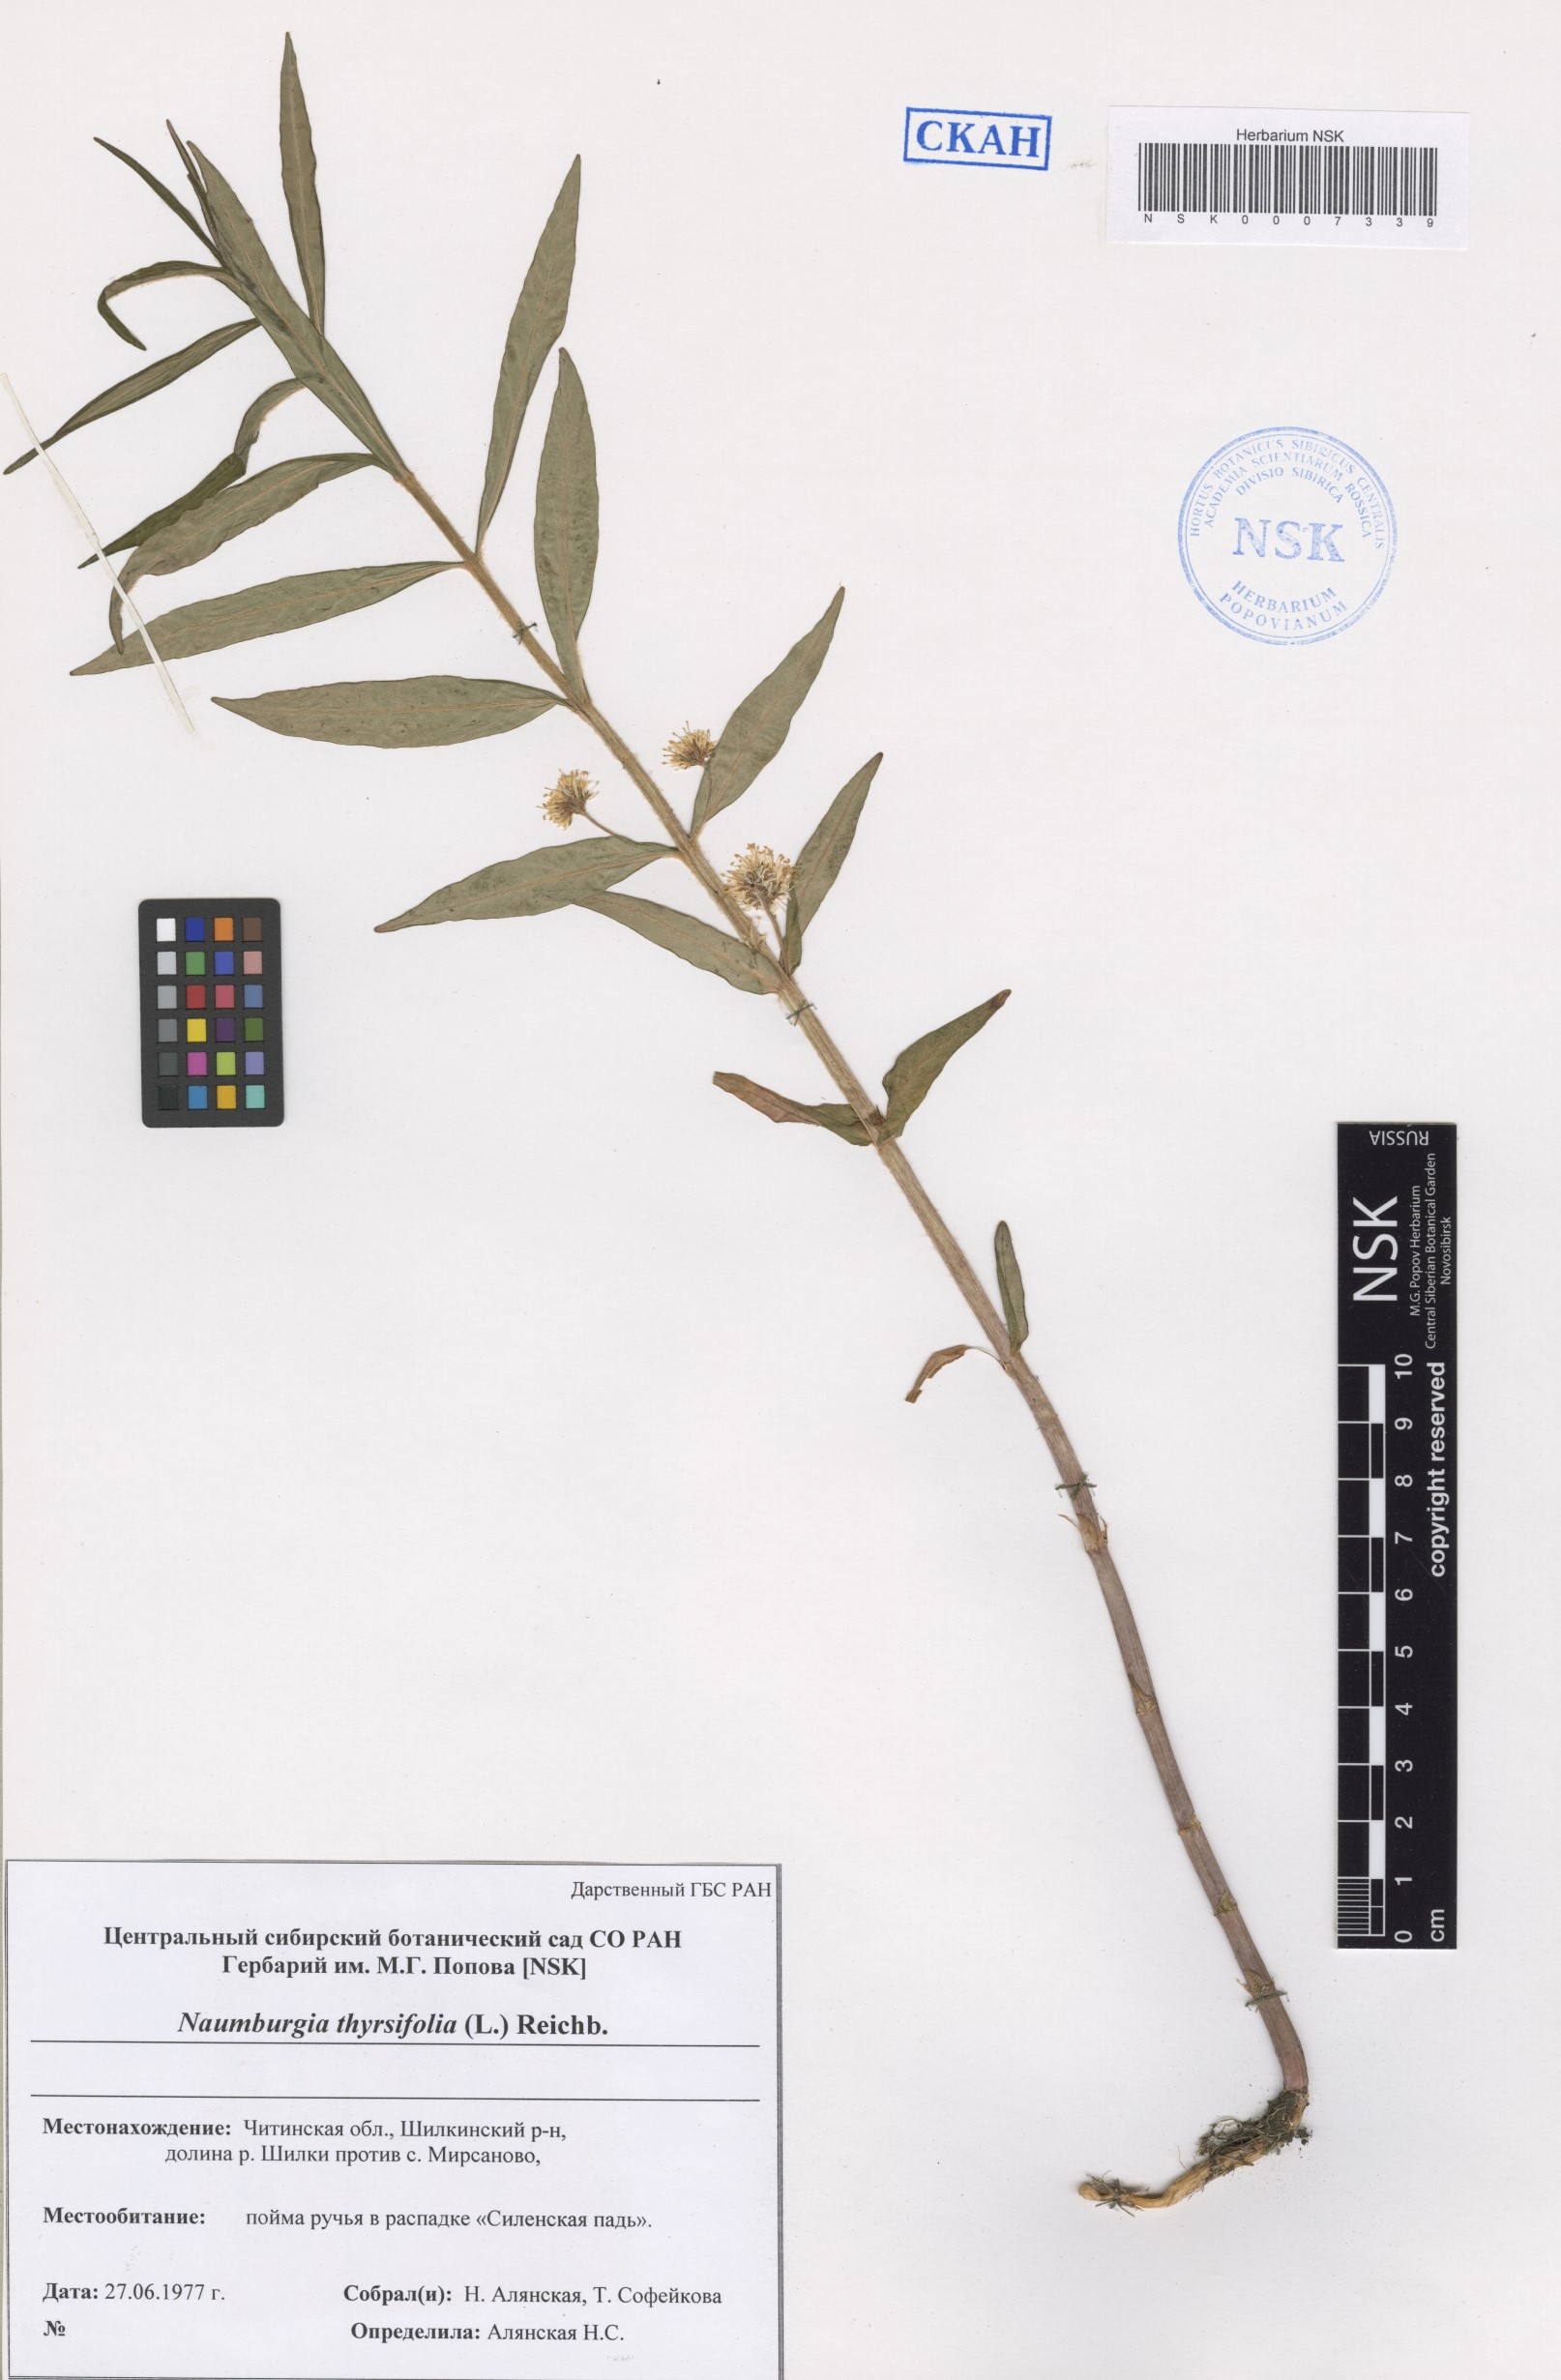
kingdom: Plantae
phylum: Tracheophyta
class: Magnoliopsida
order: Ericales
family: Primulaceae
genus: Lysimachia
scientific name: Lysimachia thyrsiflora
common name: Tufted loosestrife
